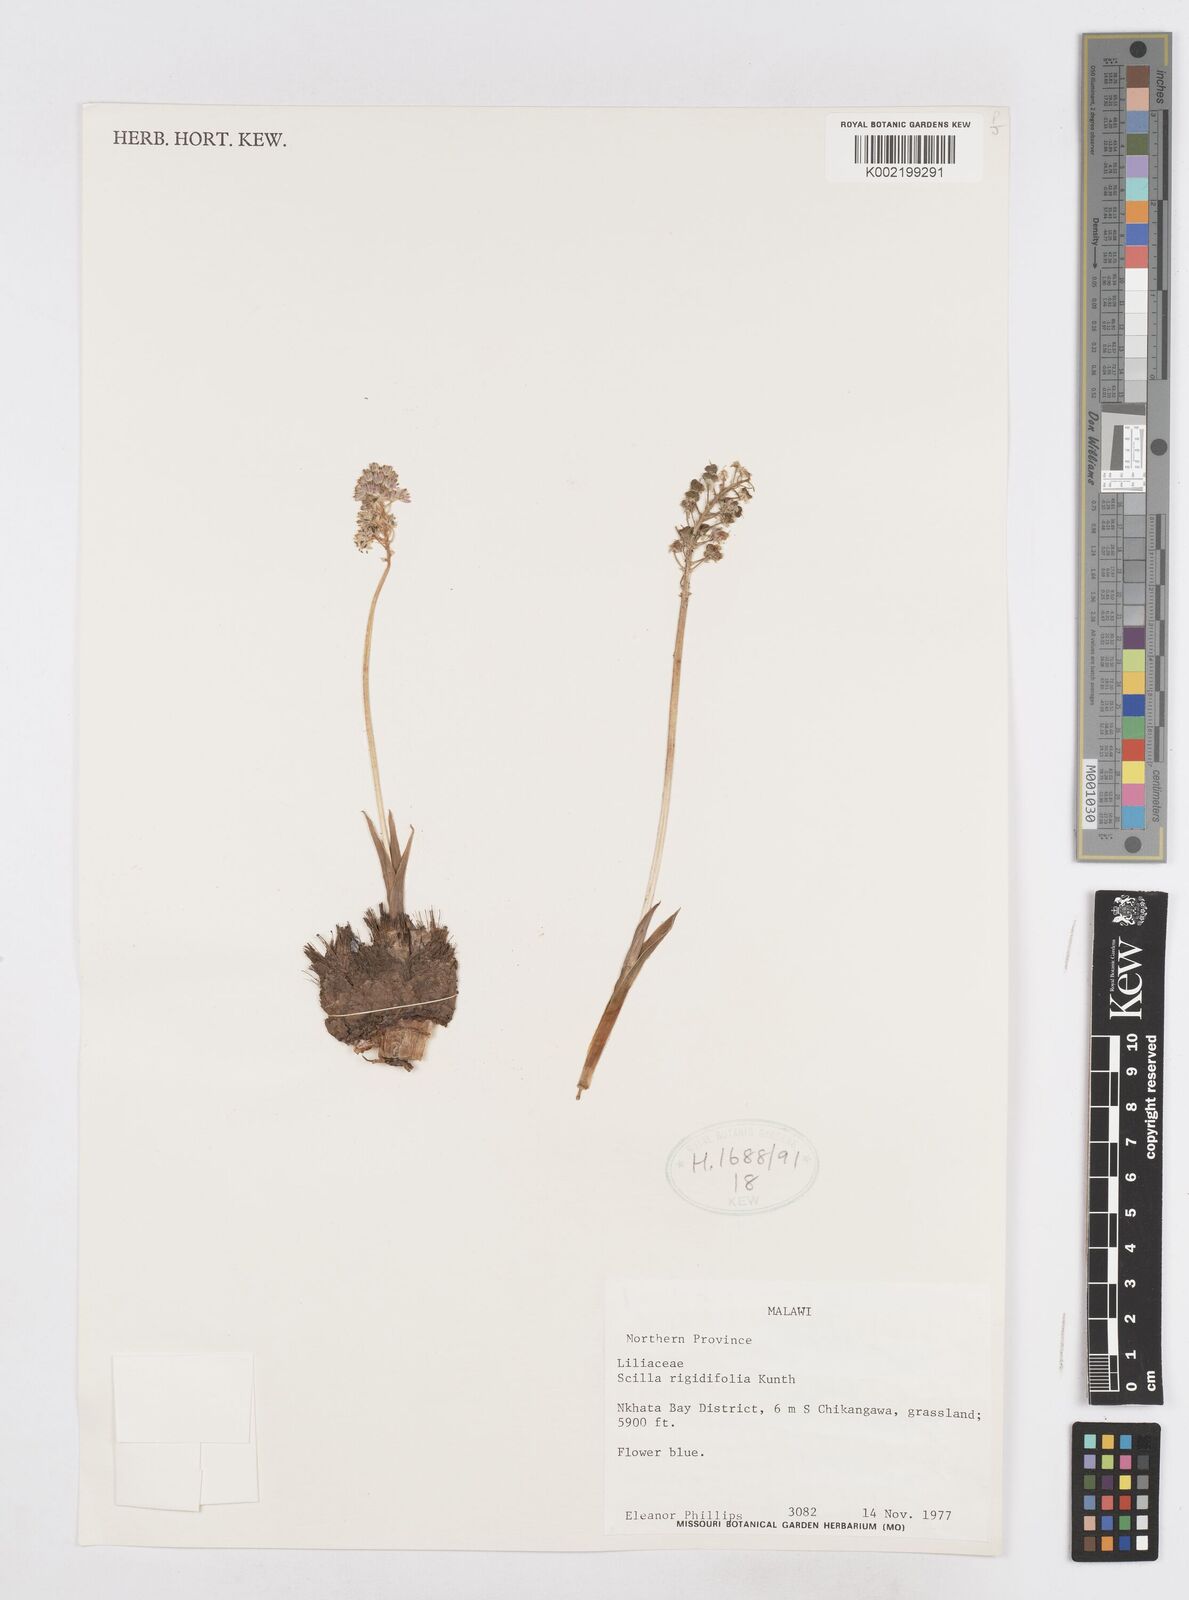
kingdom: Plantae
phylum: Tracheophyta
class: Liliopsida
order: Asparagales
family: Asparagaceae
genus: Schizocarphus
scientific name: Schizocarphus nervosus
